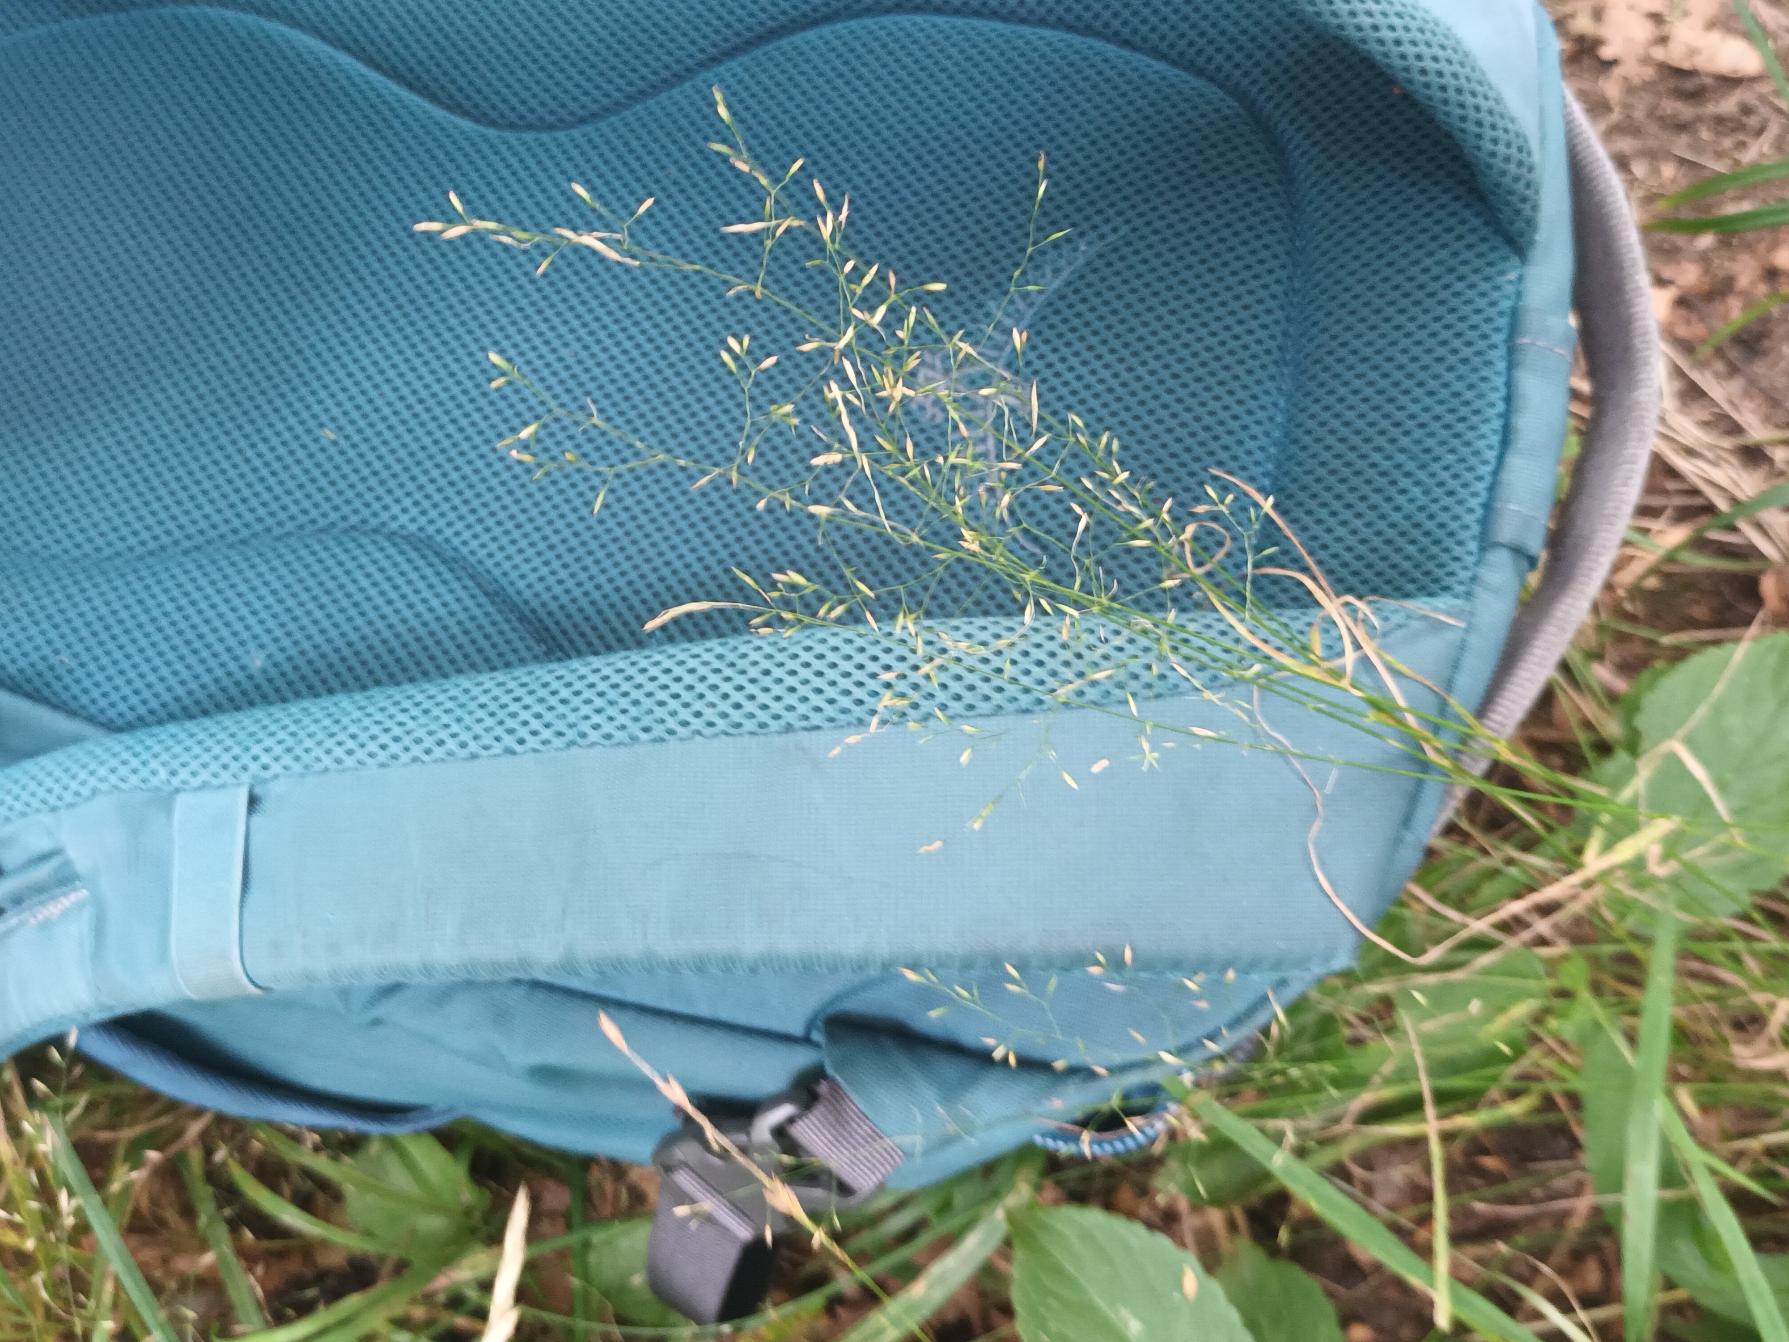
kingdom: Plantae
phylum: Tracheophyta
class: Liliopsida
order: Poales
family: Poaceae
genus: Poa
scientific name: Poa nemoralis
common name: Lund-rapgræs
